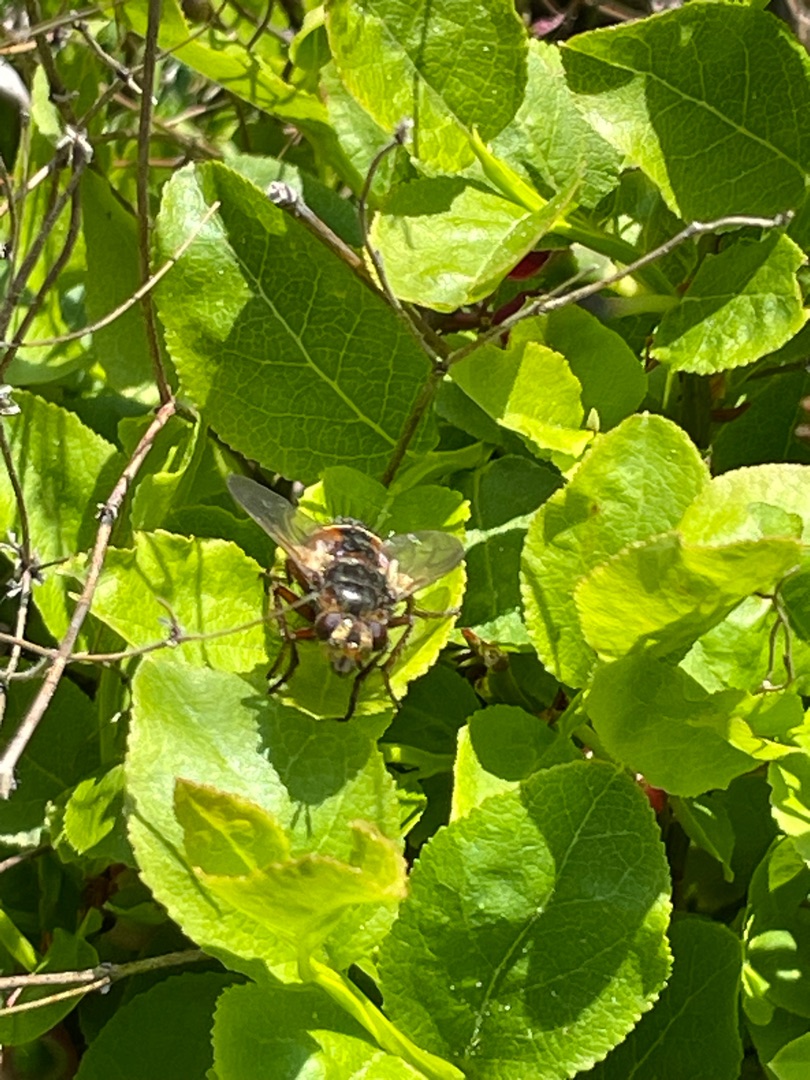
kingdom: Animalia
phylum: Arthropoda
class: Insecta
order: Diptera
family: Tachinidae
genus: Tachina
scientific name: Tachina fera
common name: Mellemfluen oskar
